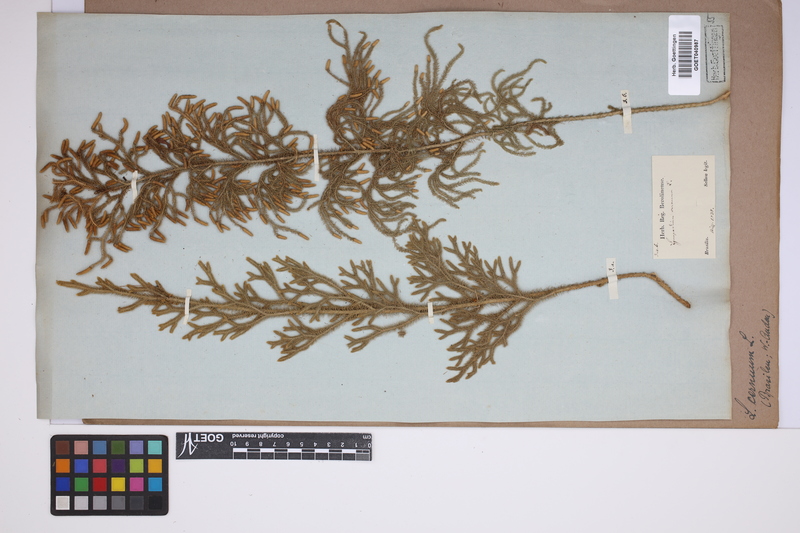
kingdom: Plantae
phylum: Tracheophyta
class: Lycopodiopsida
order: Lycopodiales
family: Lycopodiaceae
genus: Palhinhaea
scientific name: Palhinhaea cernua
